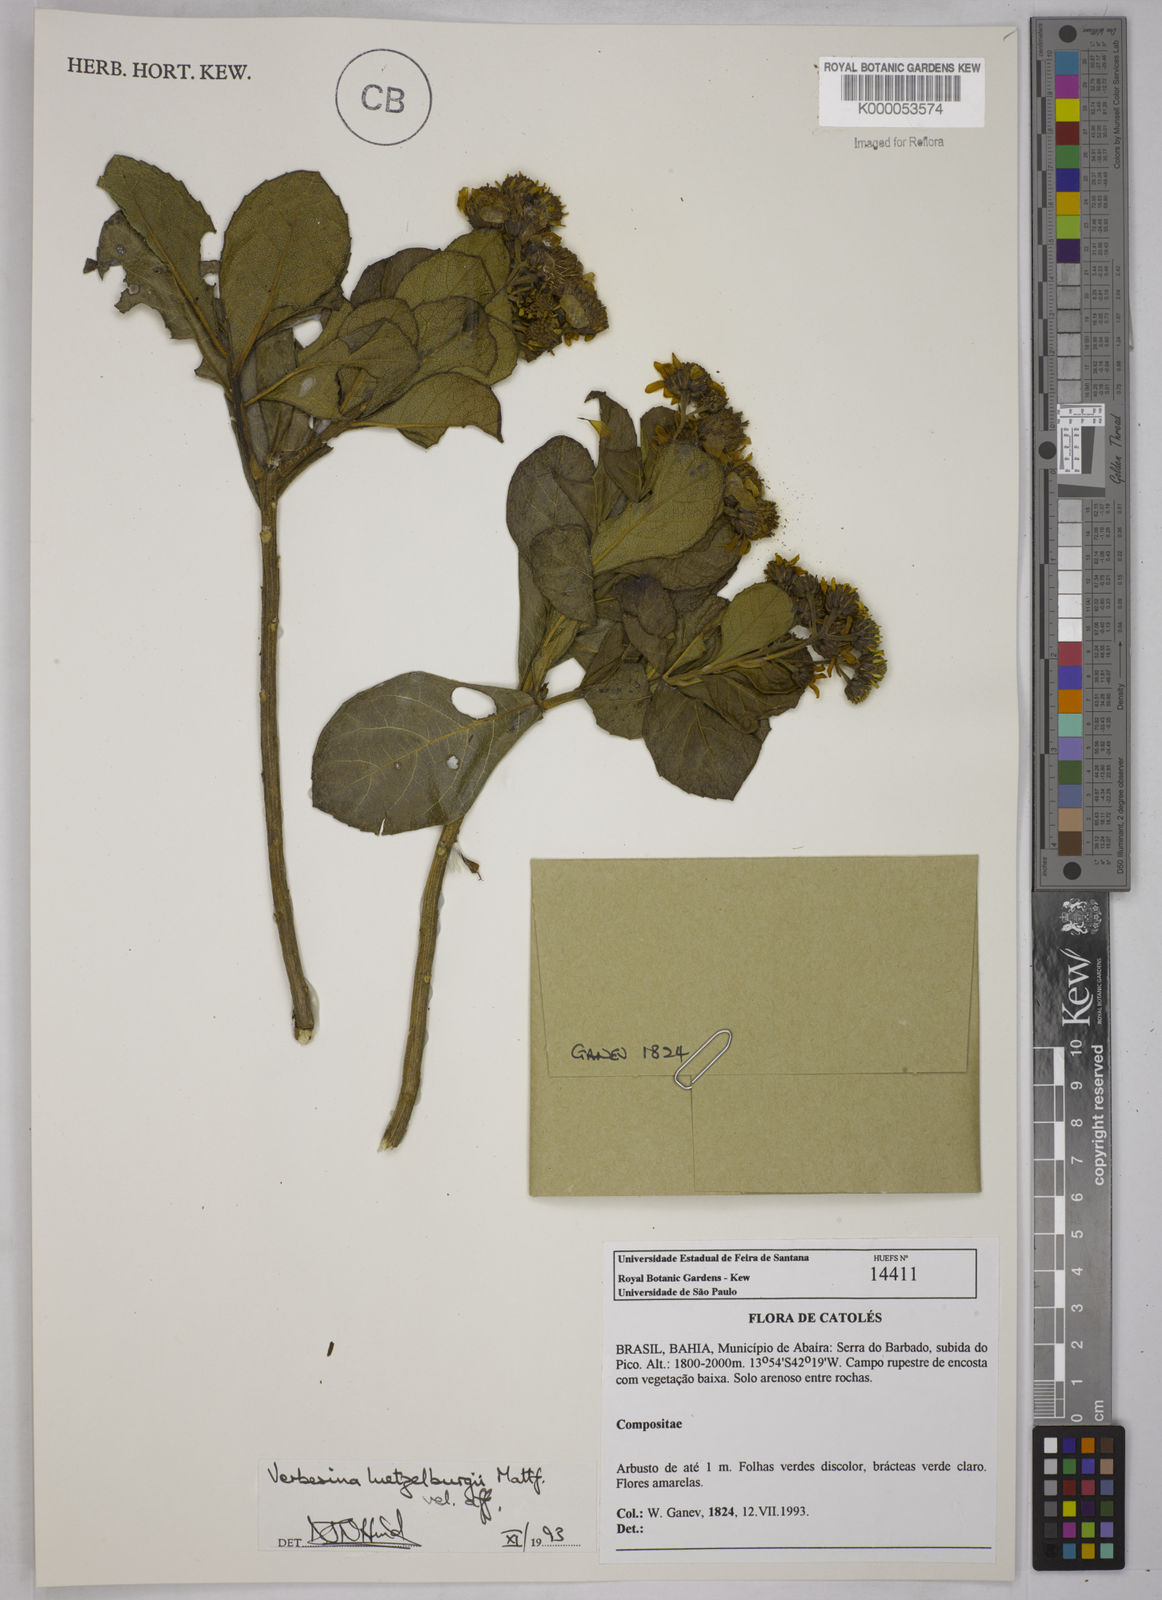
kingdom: Plantae
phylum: Tracheophyta
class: Magnoliopsida
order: Asterales
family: Asteraceae
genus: Verbesina
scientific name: Verbesina luetzelburgii
